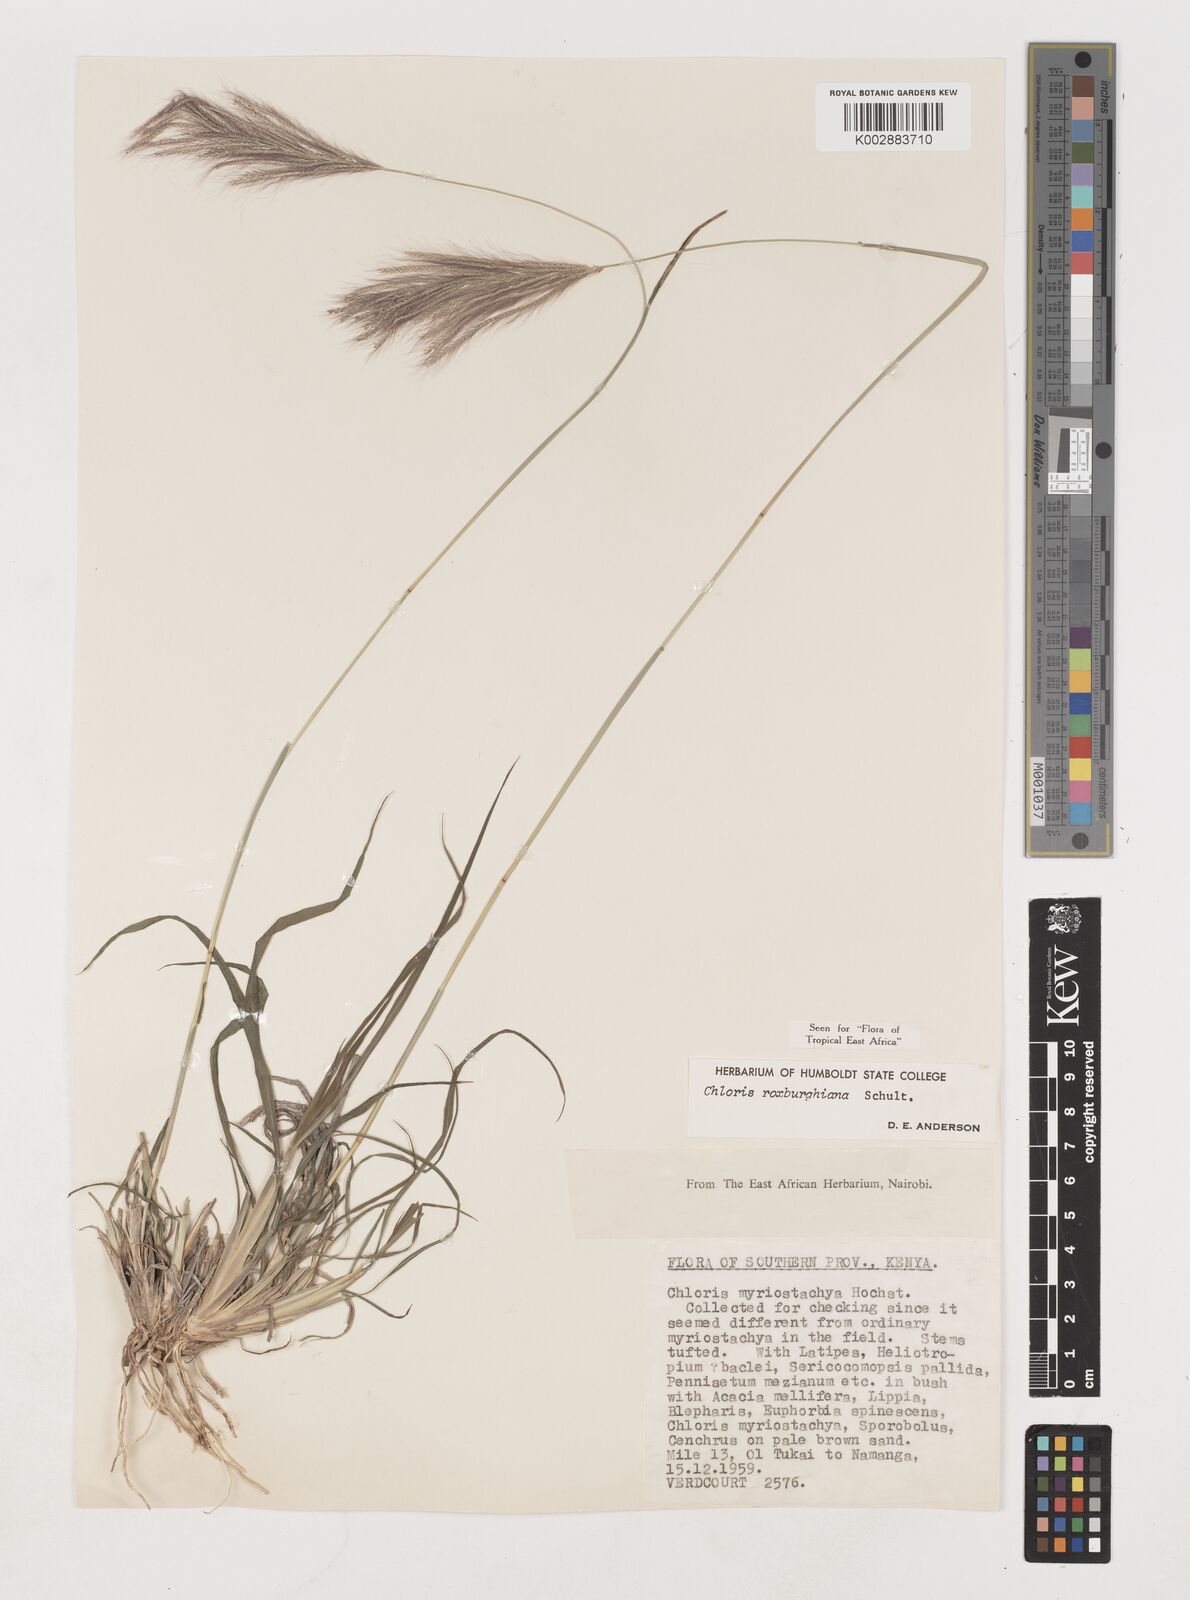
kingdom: Plantae
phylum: Tracheophyta
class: Liliopsida
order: Poales
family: Poaceae
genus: Tetrapogon
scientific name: Tetrapogon roxburghiana
